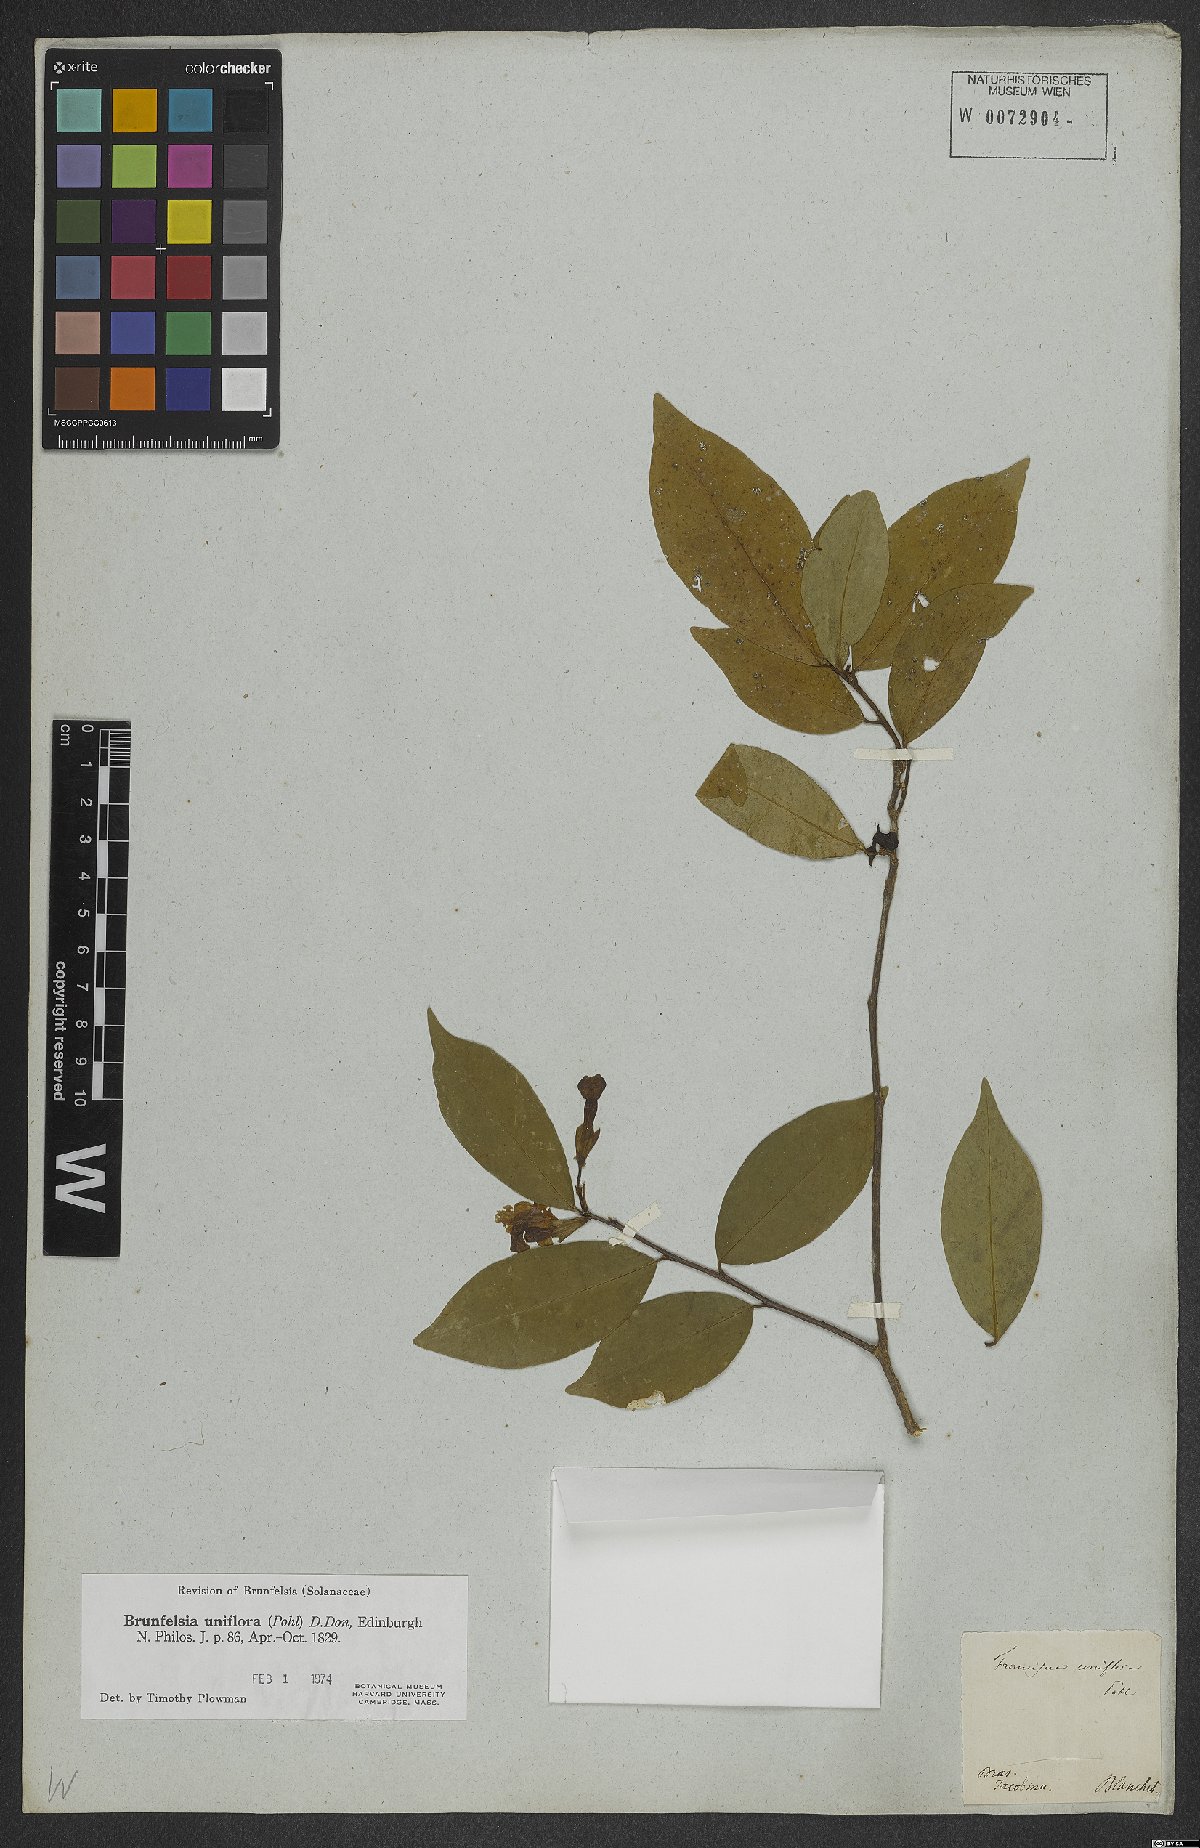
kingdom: Plantae
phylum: Tracheophyta
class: Magnoliopsida
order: Solanales
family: Solanaceae
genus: Brunfelsia
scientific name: Brunfelsia uniflora
